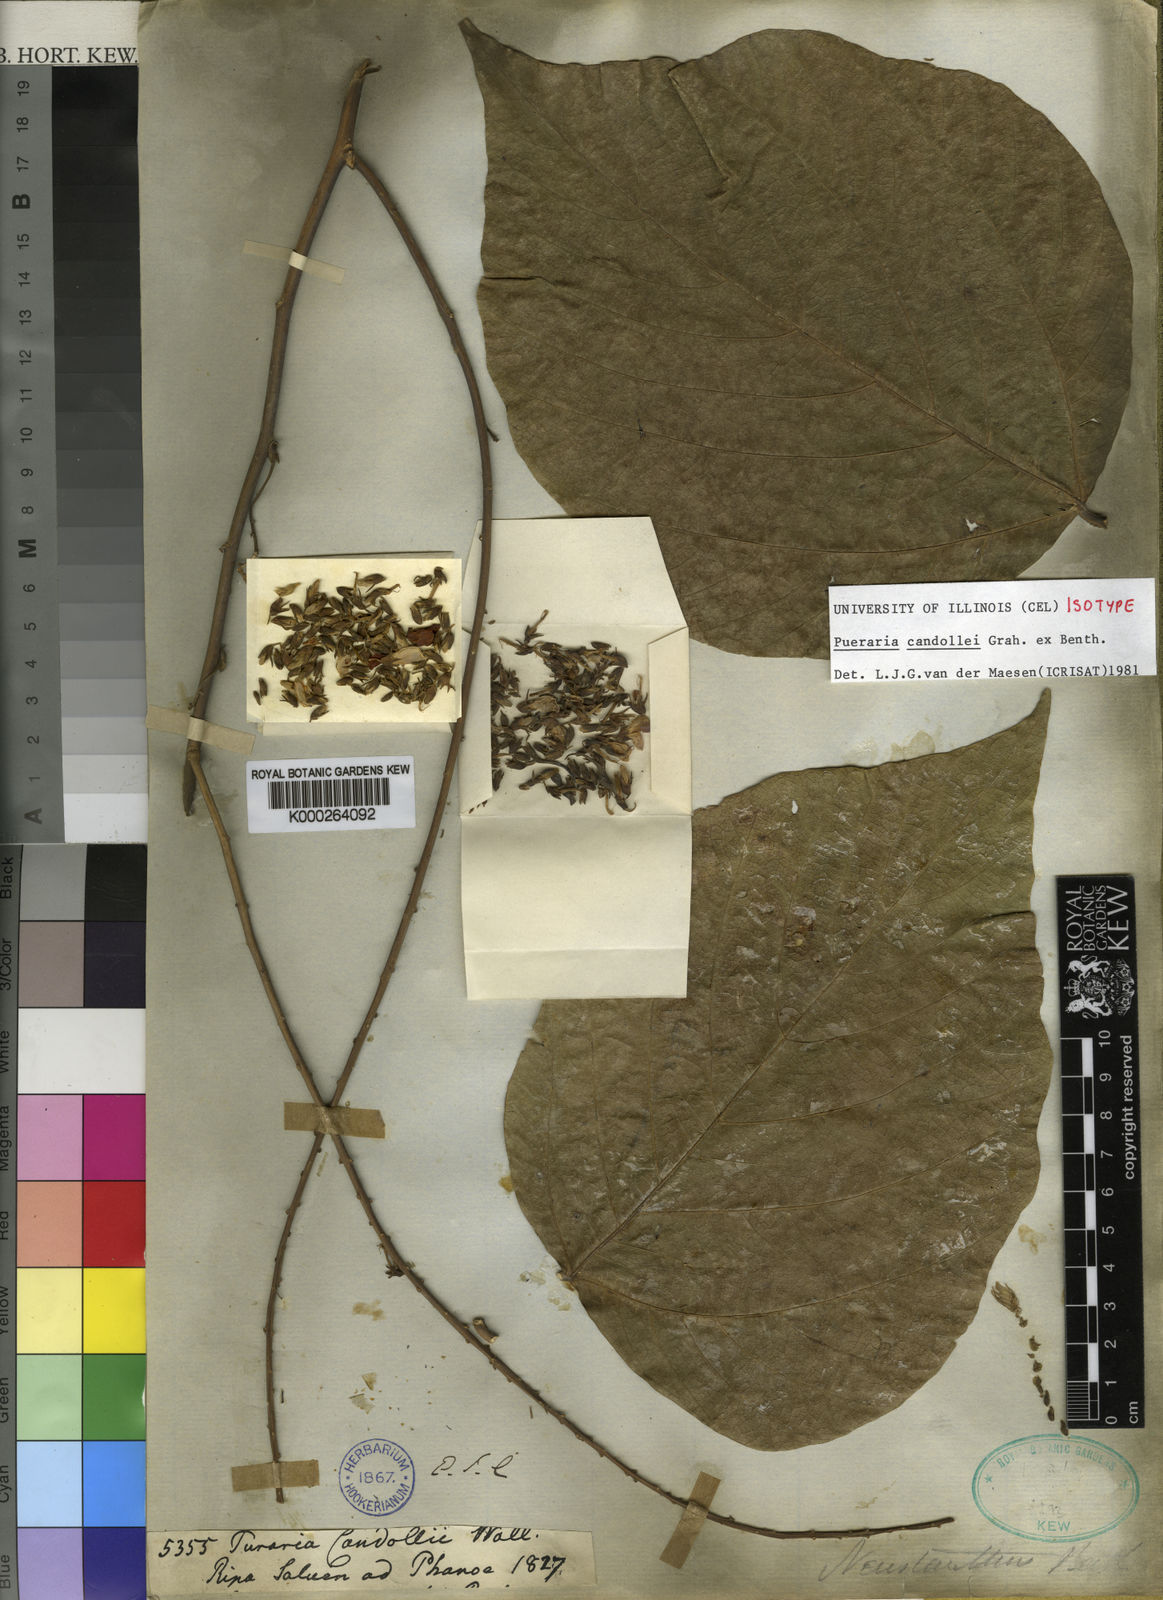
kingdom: Plantae
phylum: Tracheophyta
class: Magnoliopsida
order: Fabales
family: Fabaceae
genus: Pueraria
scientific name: Pueraria candollei
